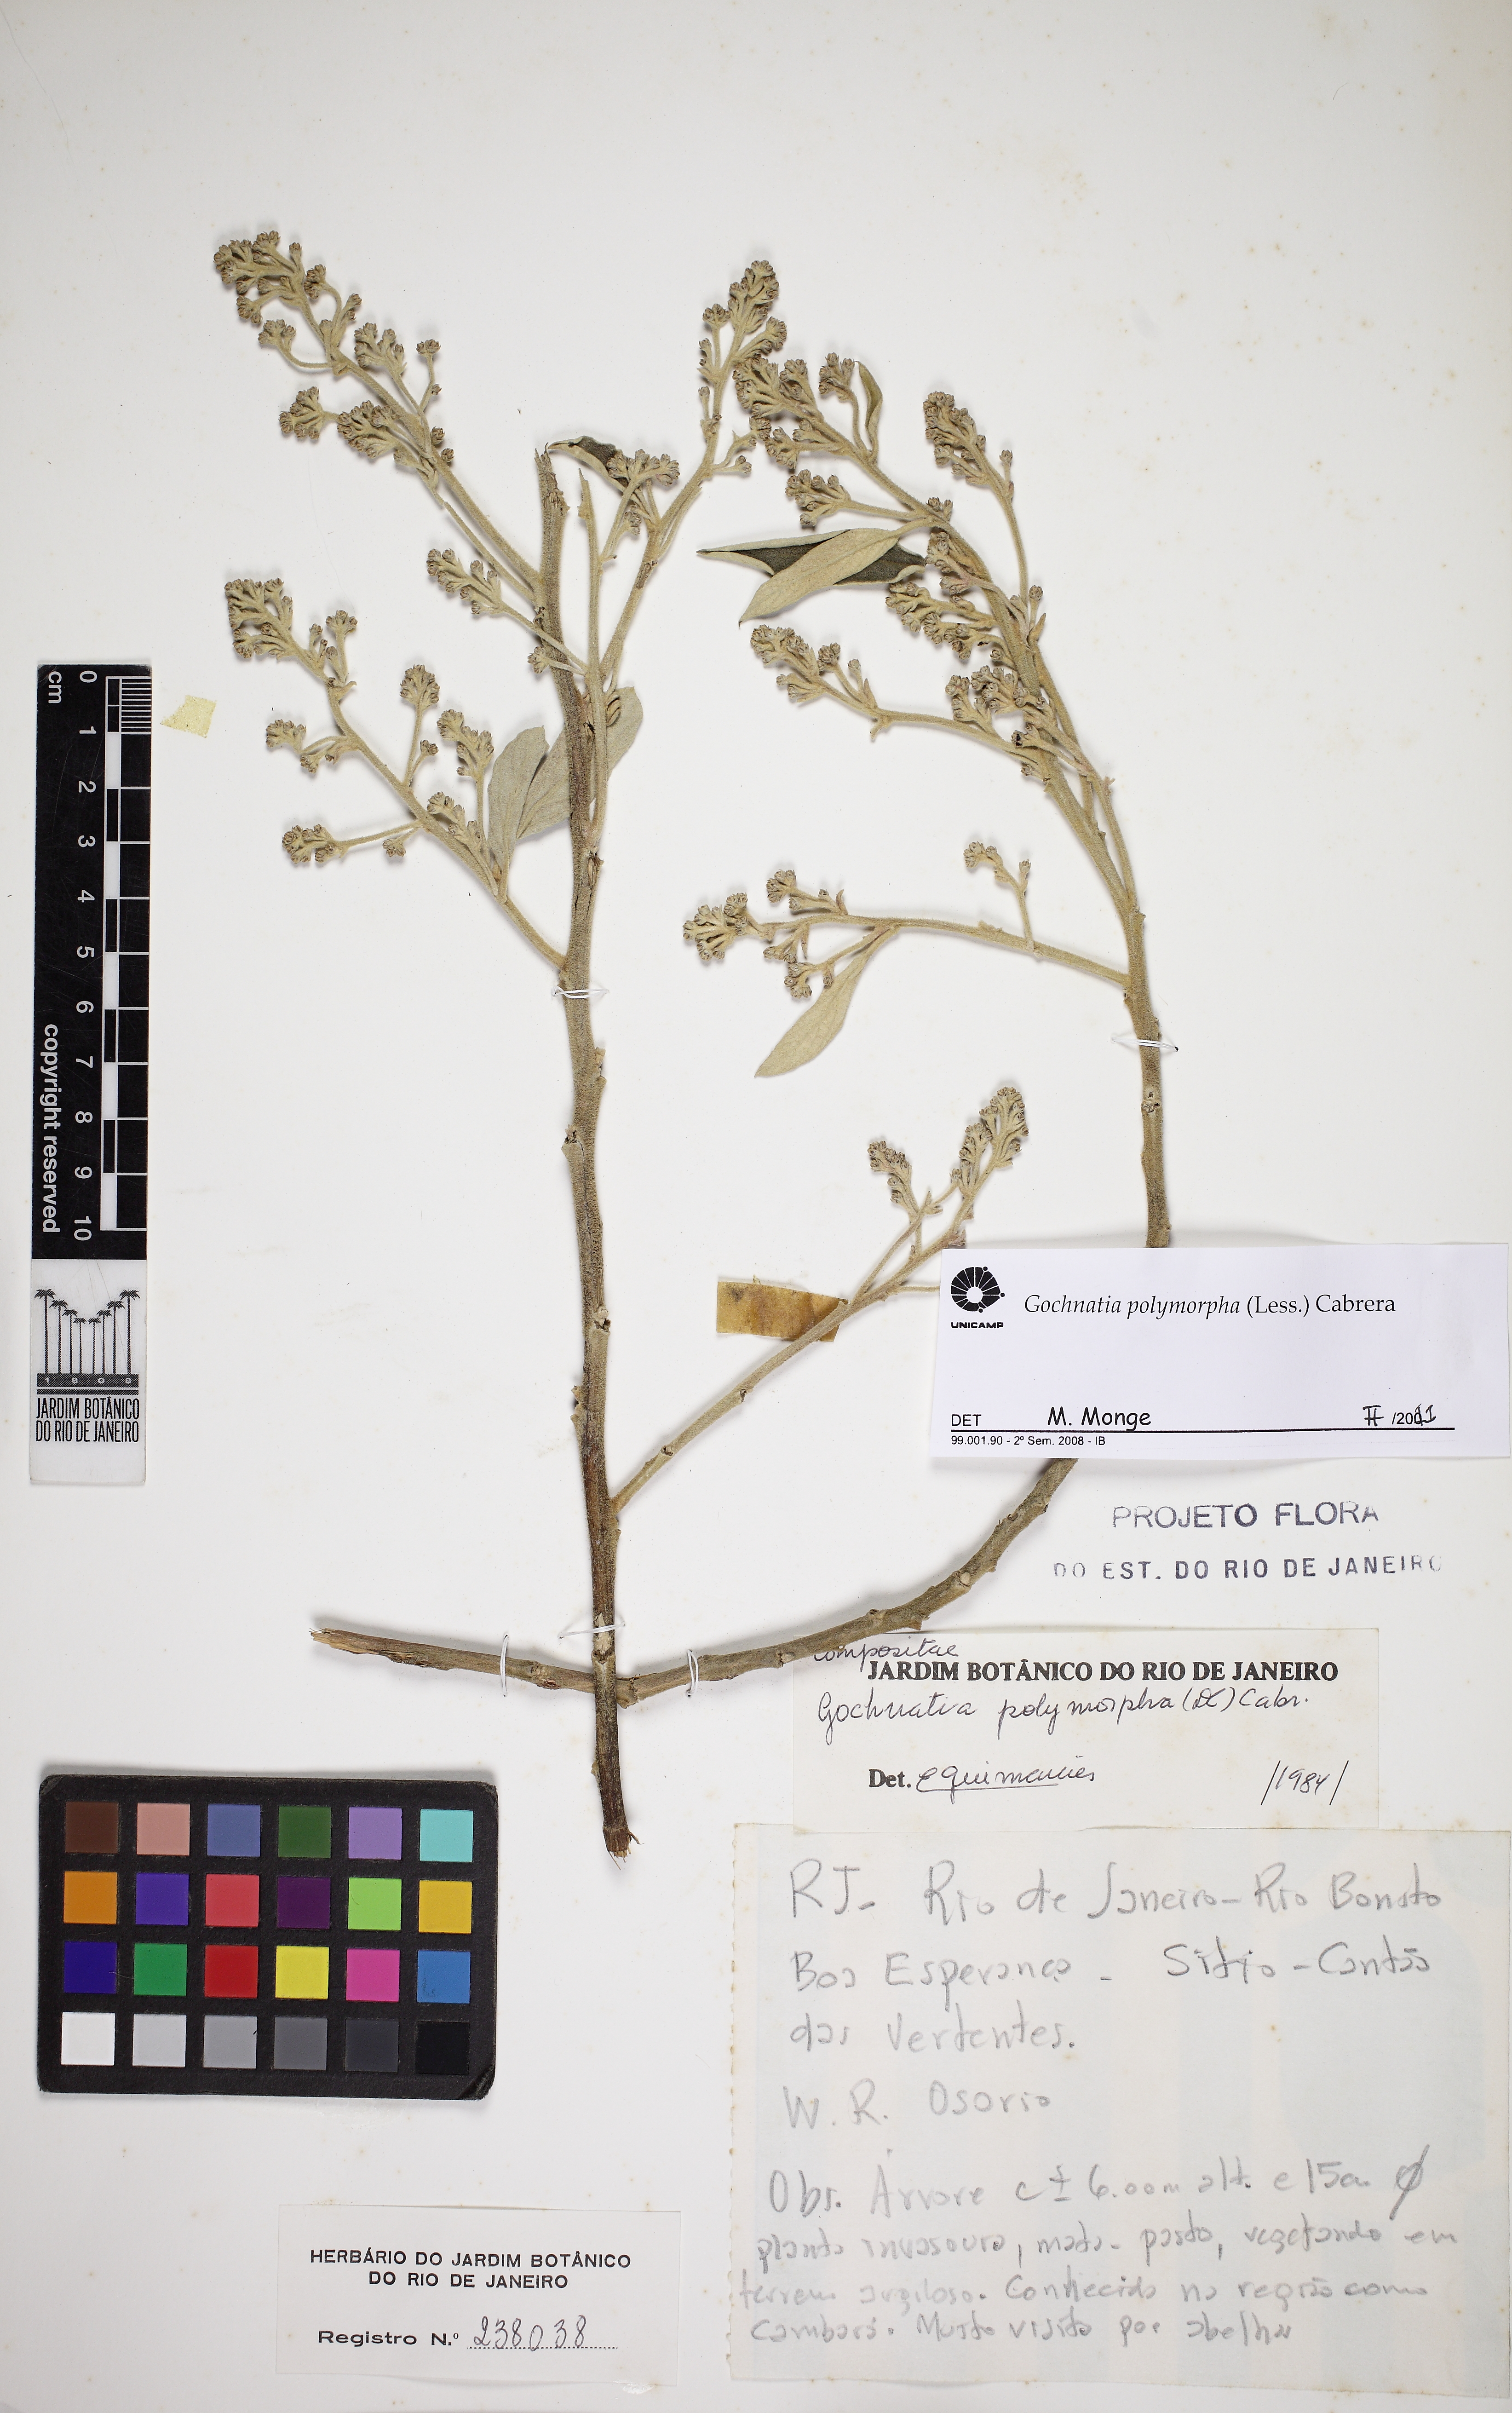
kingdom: Plantae
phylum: Tracheophyta
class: Magnoliopsida
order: Asterales
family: Asteraceae
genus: Moquiniastrum
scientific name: Moquiniastrum polymorphum
